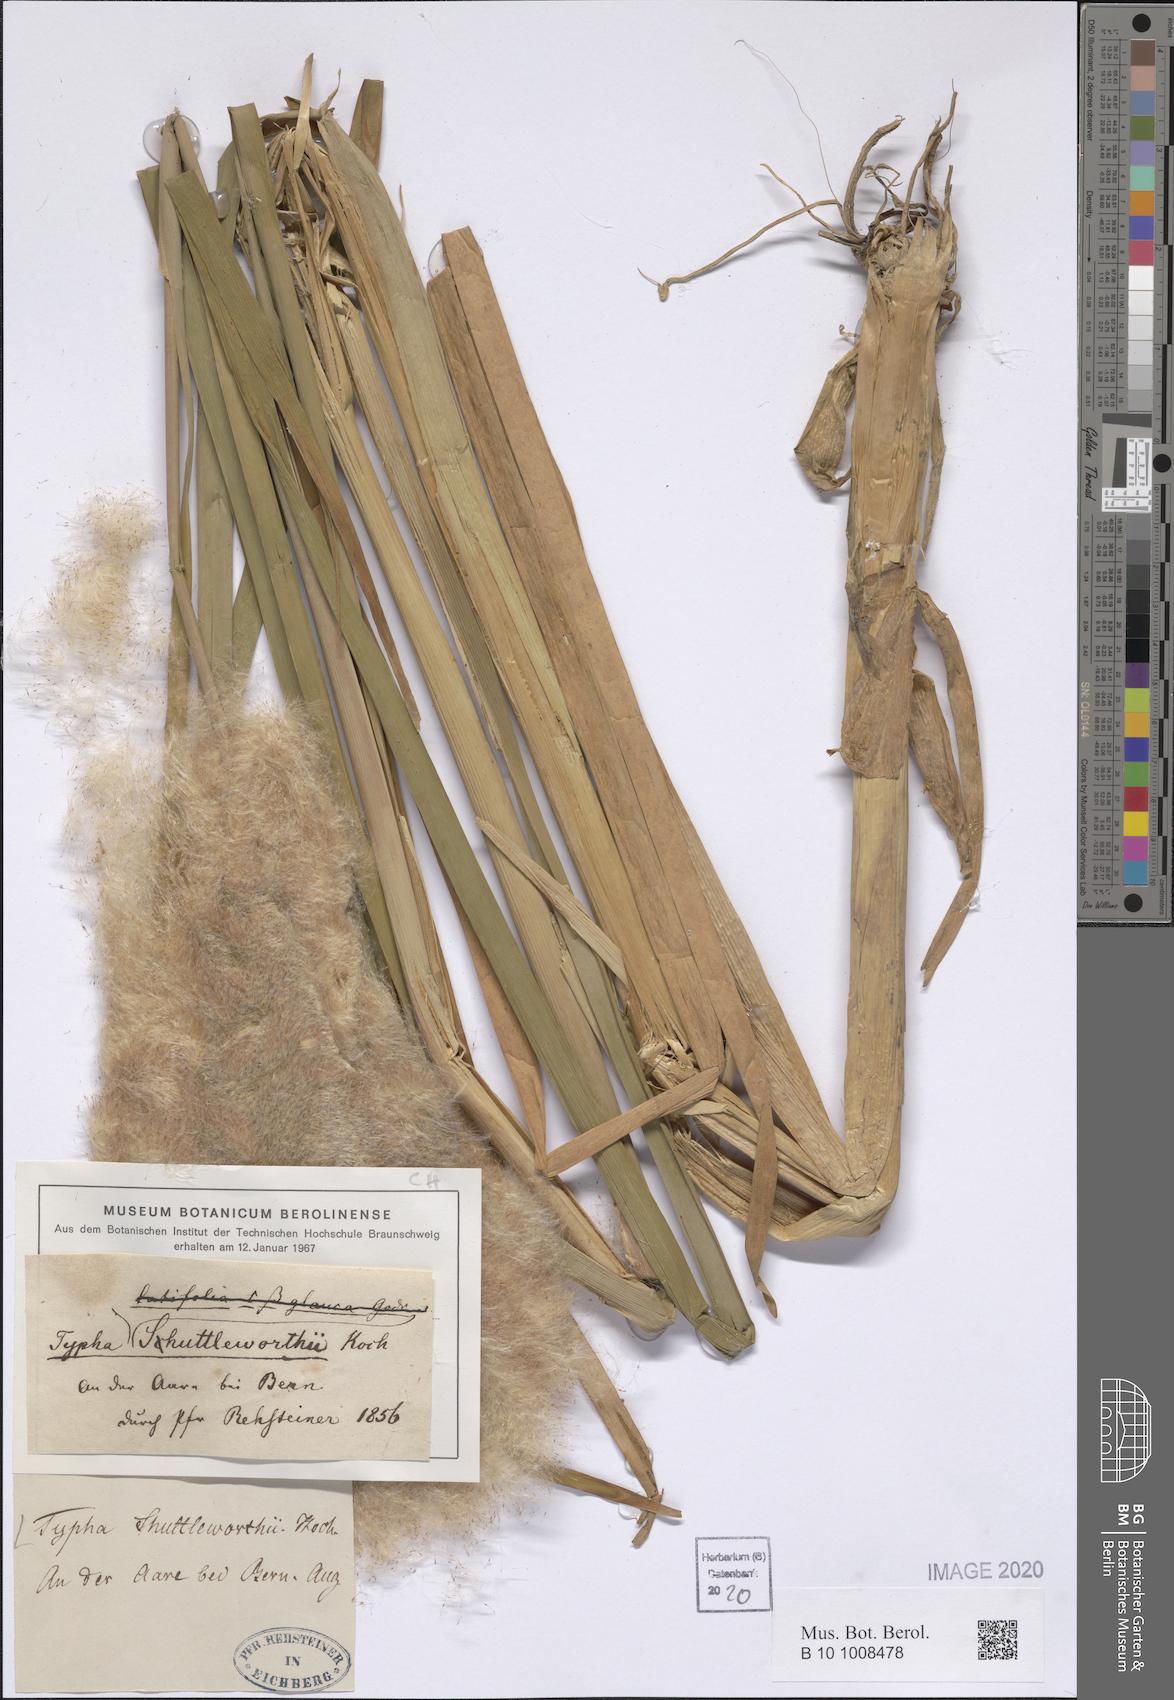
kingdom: Plantae
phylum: Tracheophyta
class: Liliopsida
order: Poales
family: Typhaceae
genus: Typha
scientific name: Typha shuttleworthii
